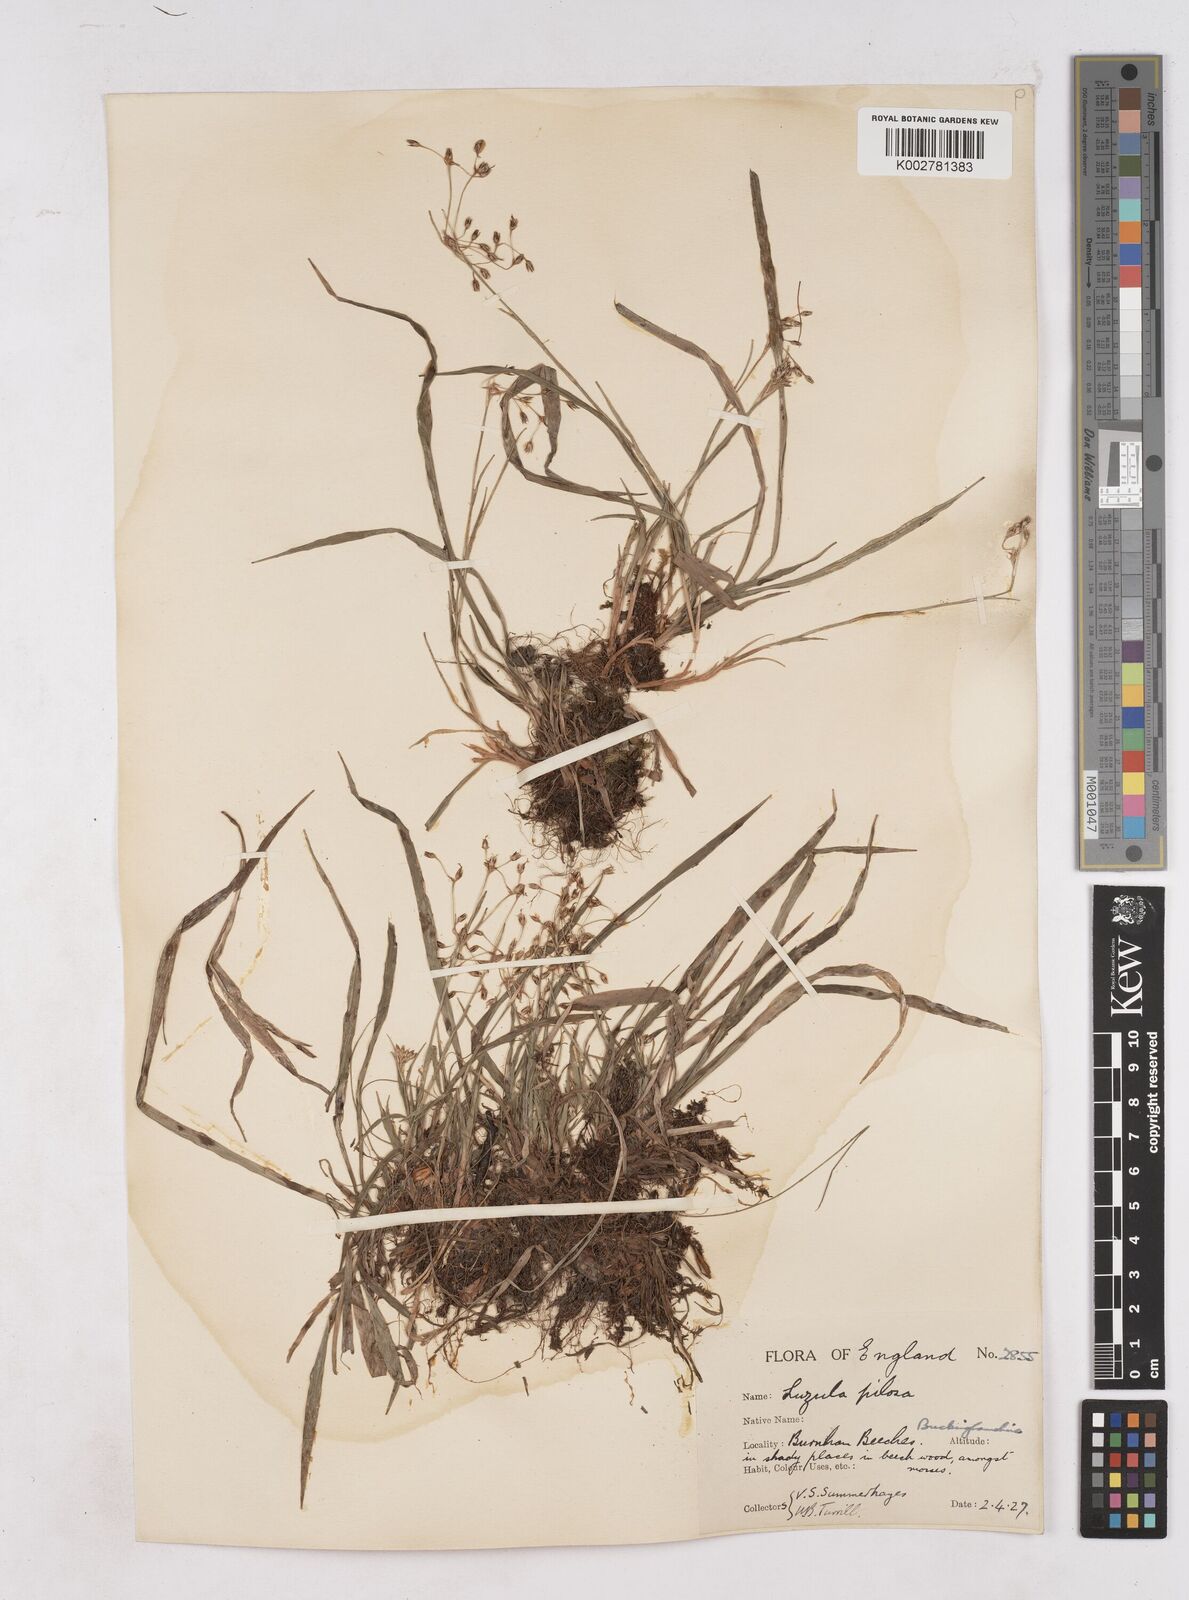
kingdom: Plantae
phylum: Tracheophyta
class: Liliopsida
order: Poales
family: Juncaceae
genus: Luzula
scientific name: Luzula pilosa
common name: Hairy wood-rush
